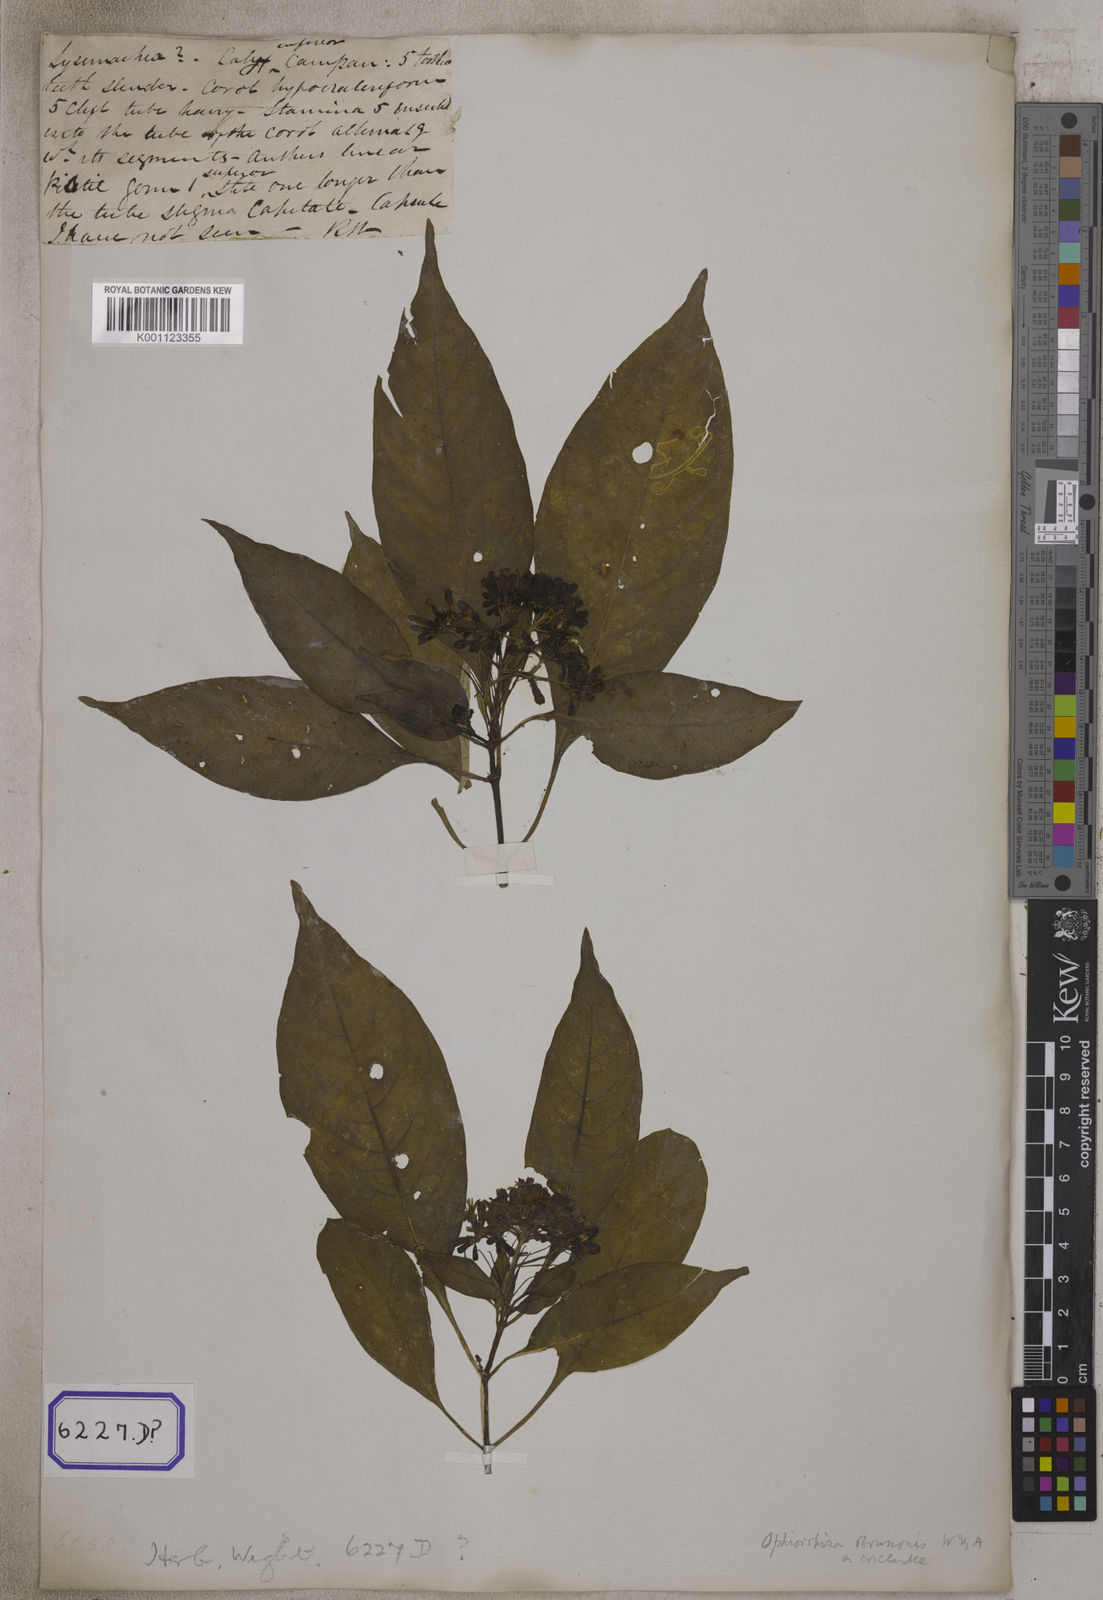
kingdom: Plantae
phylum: Tracheophyta
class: Magnoliopsida
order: Gentianales
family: Rubiaceae
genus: Ophiorrhiza
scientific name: Ophiorrhiza mungos
